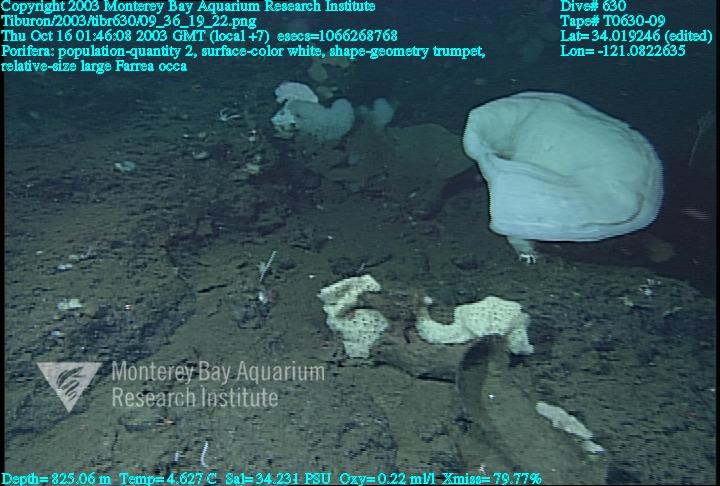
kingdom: Animalia
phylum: Porifera
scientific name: Porifera
